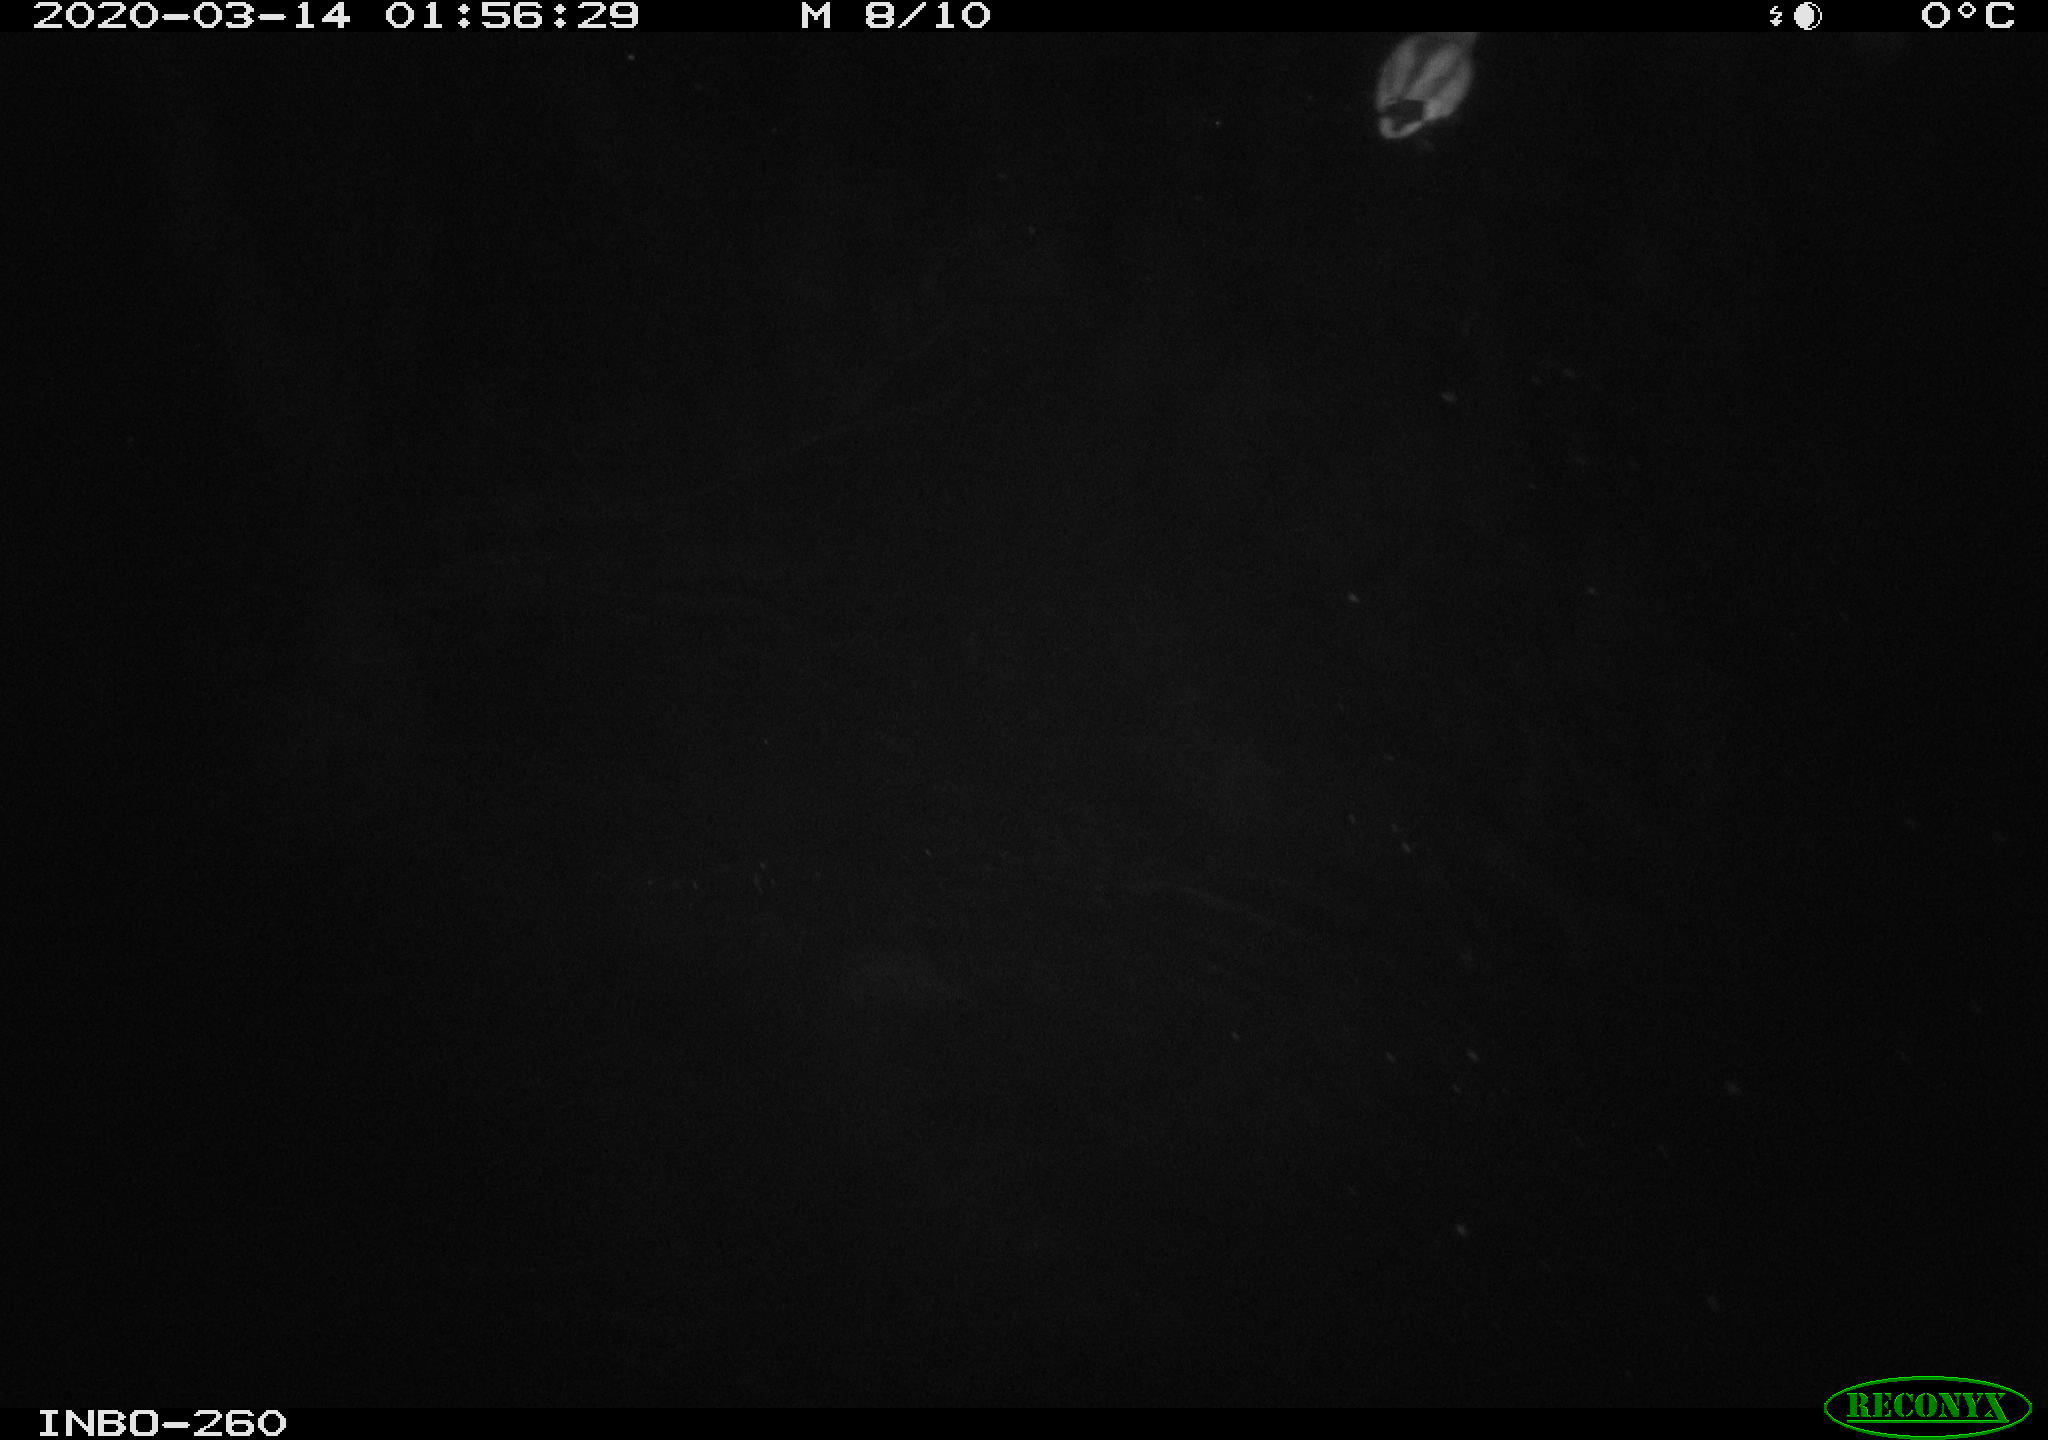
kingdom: Animalia
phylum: Chordata
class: Aves
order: Anseriformes
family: Anatidae
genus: Anas
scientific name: Anas platyrhynchos
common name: Mallard
